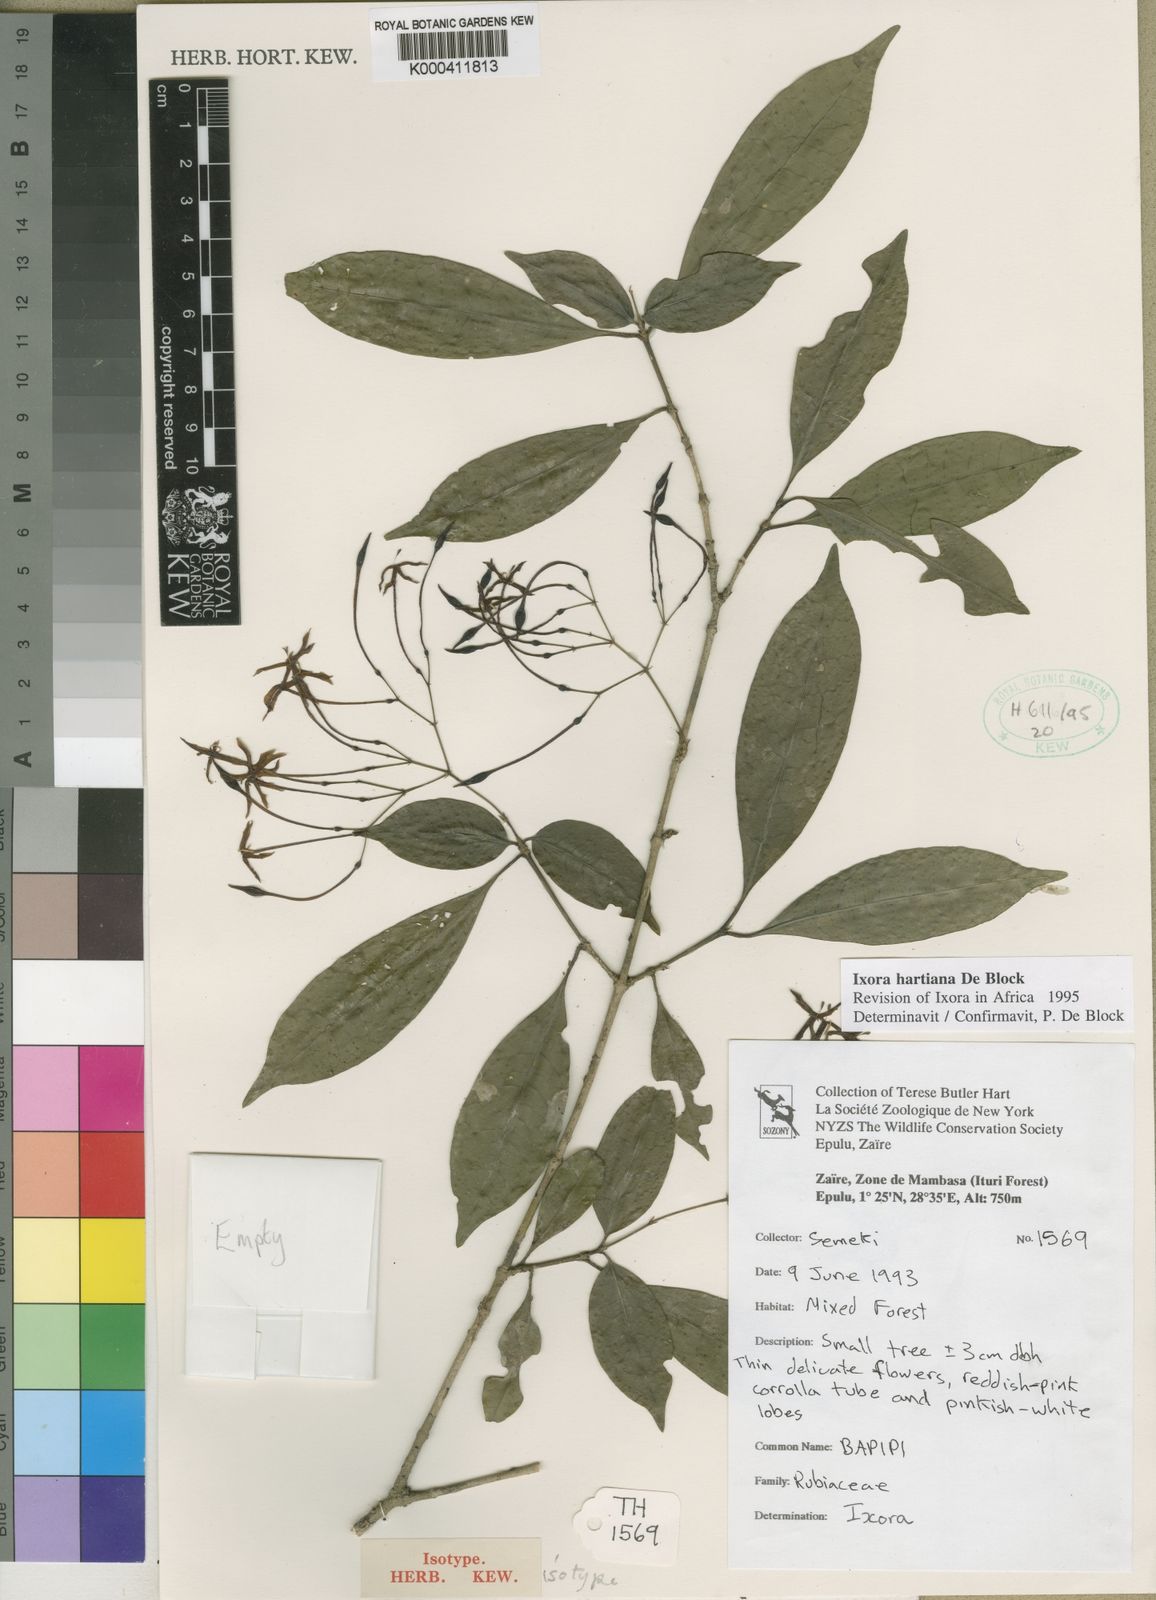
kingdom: Plantae
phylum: Tracheophyta
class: Magnoliopsida
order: Gentianales
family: Rubiaceae
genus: Ixora
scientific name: Ixora hartiana
